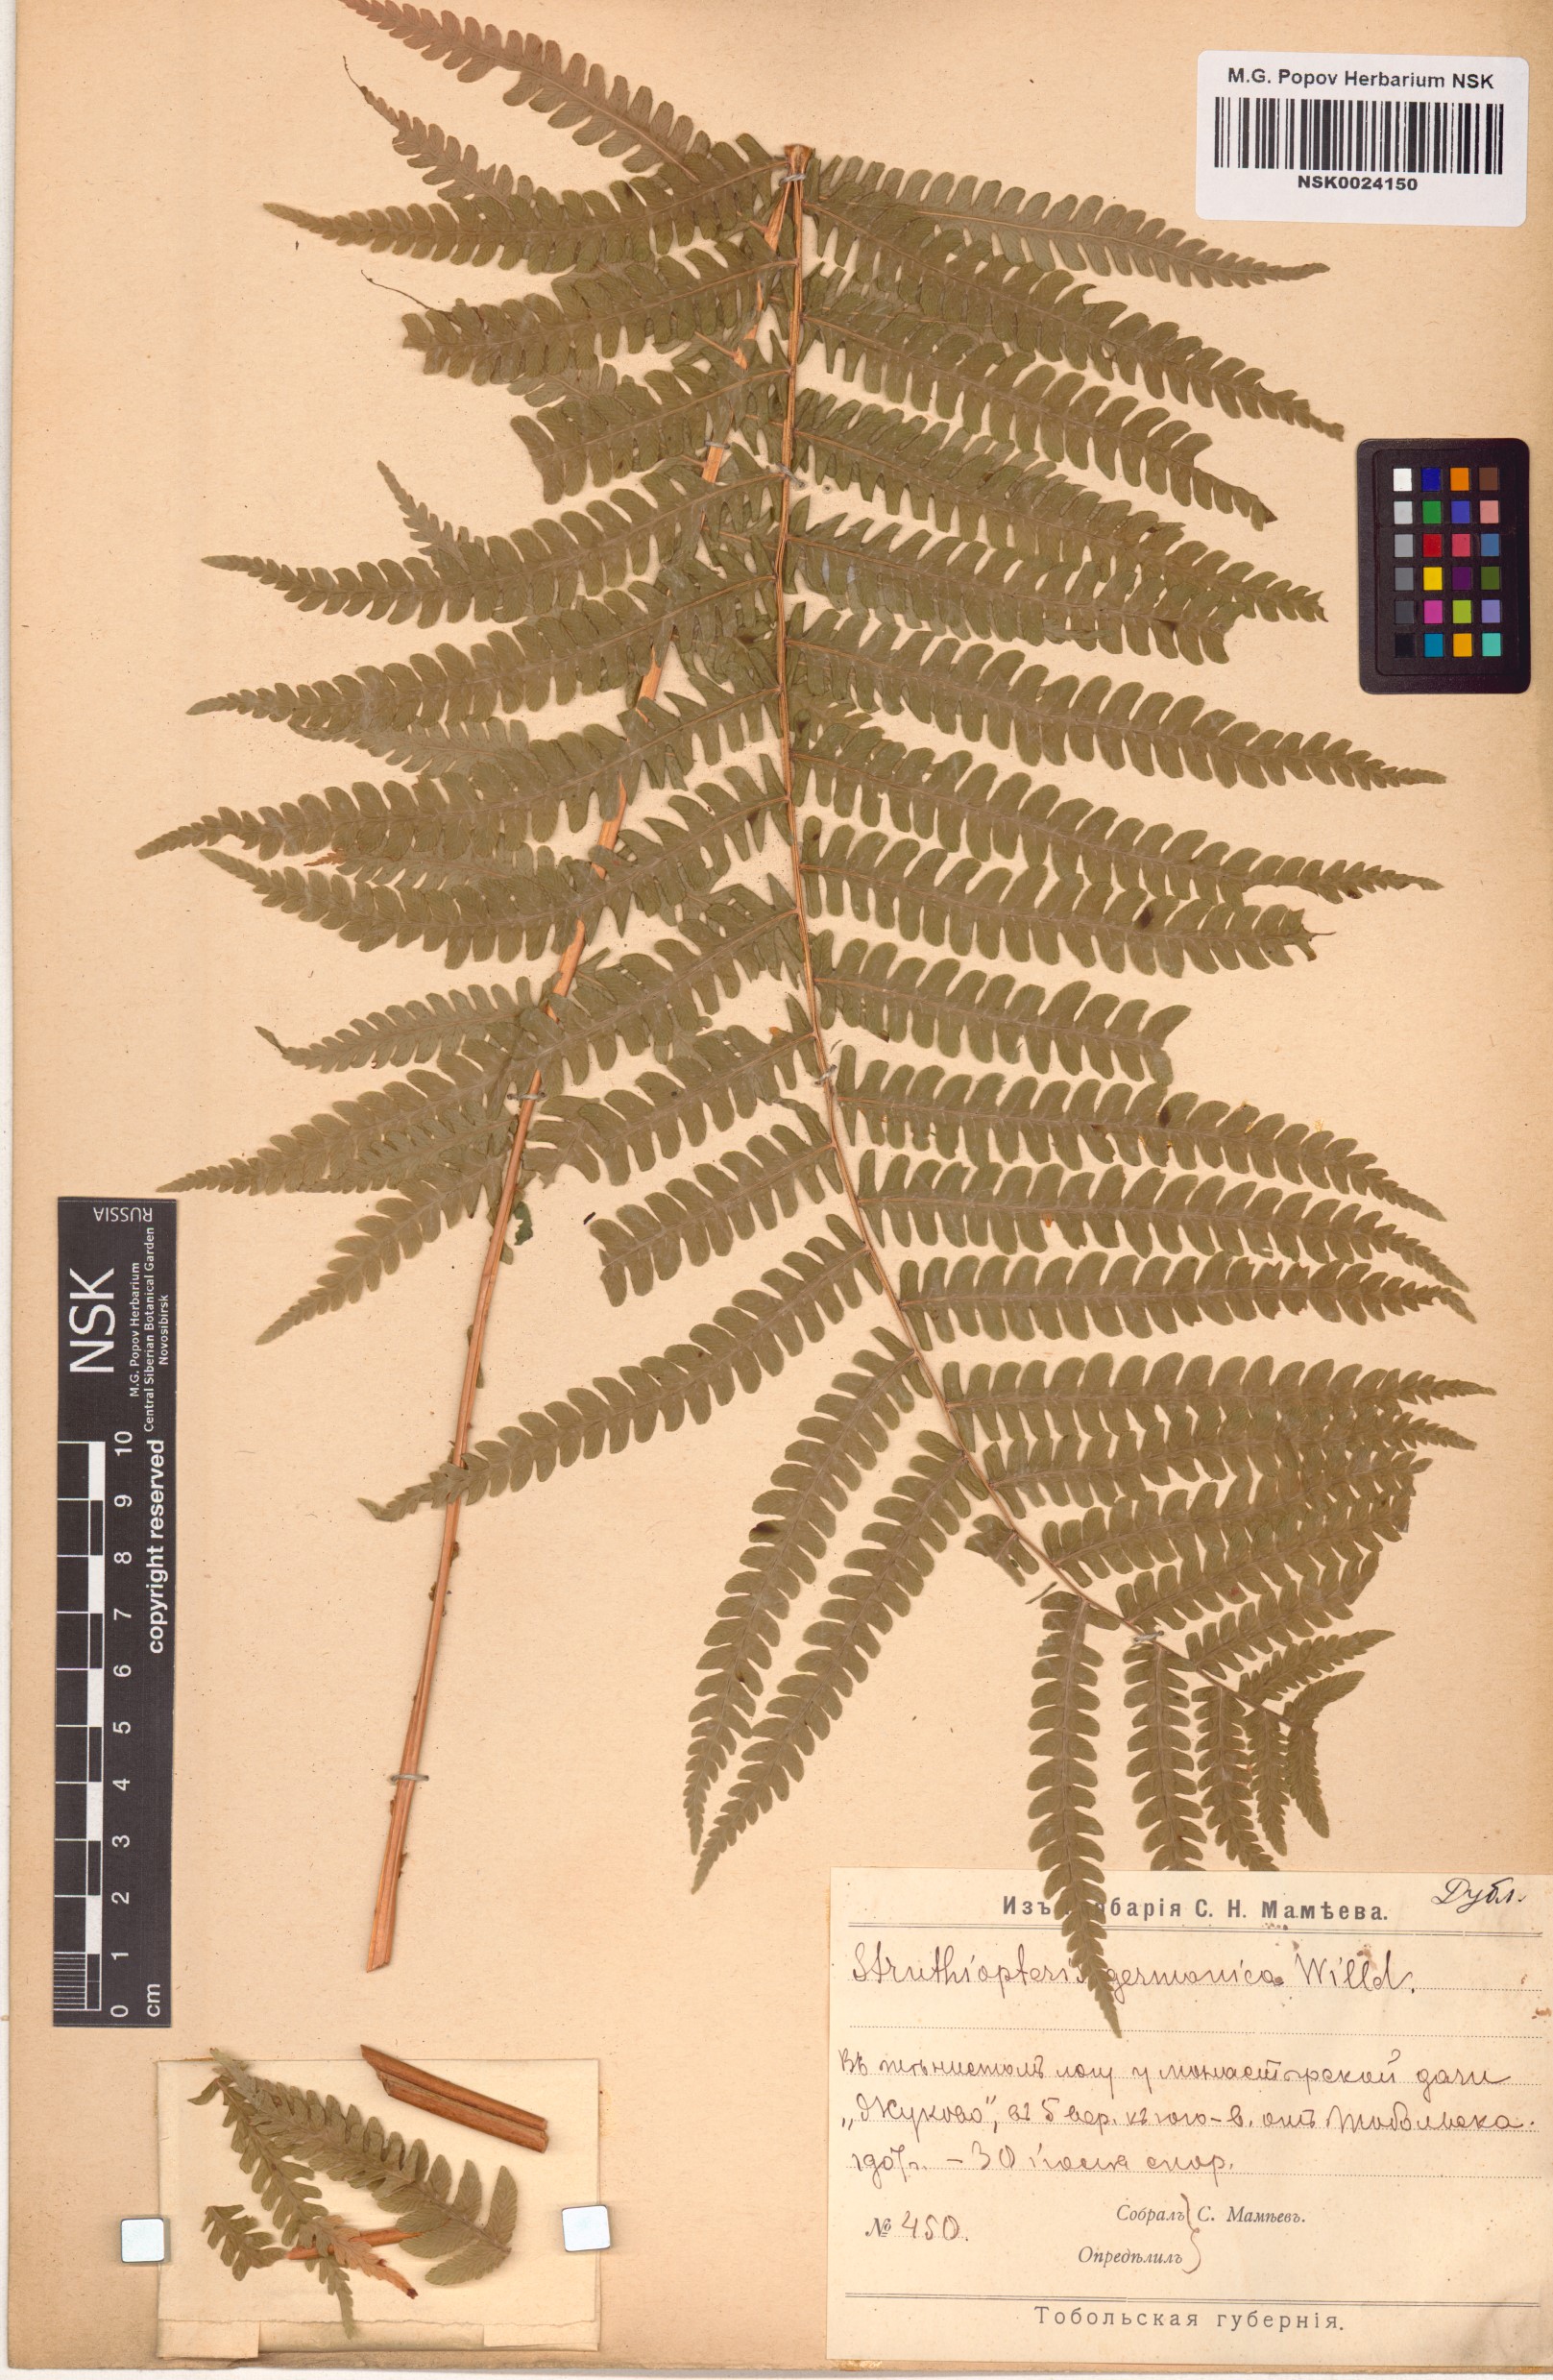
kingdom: Plantae
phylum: Tracheophyta
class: Polypodiopsida
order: Polypodiales
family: Onocleaceae
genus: Matteuccia
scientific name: Matteuccia struthiopteris
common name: Ostrich fern
